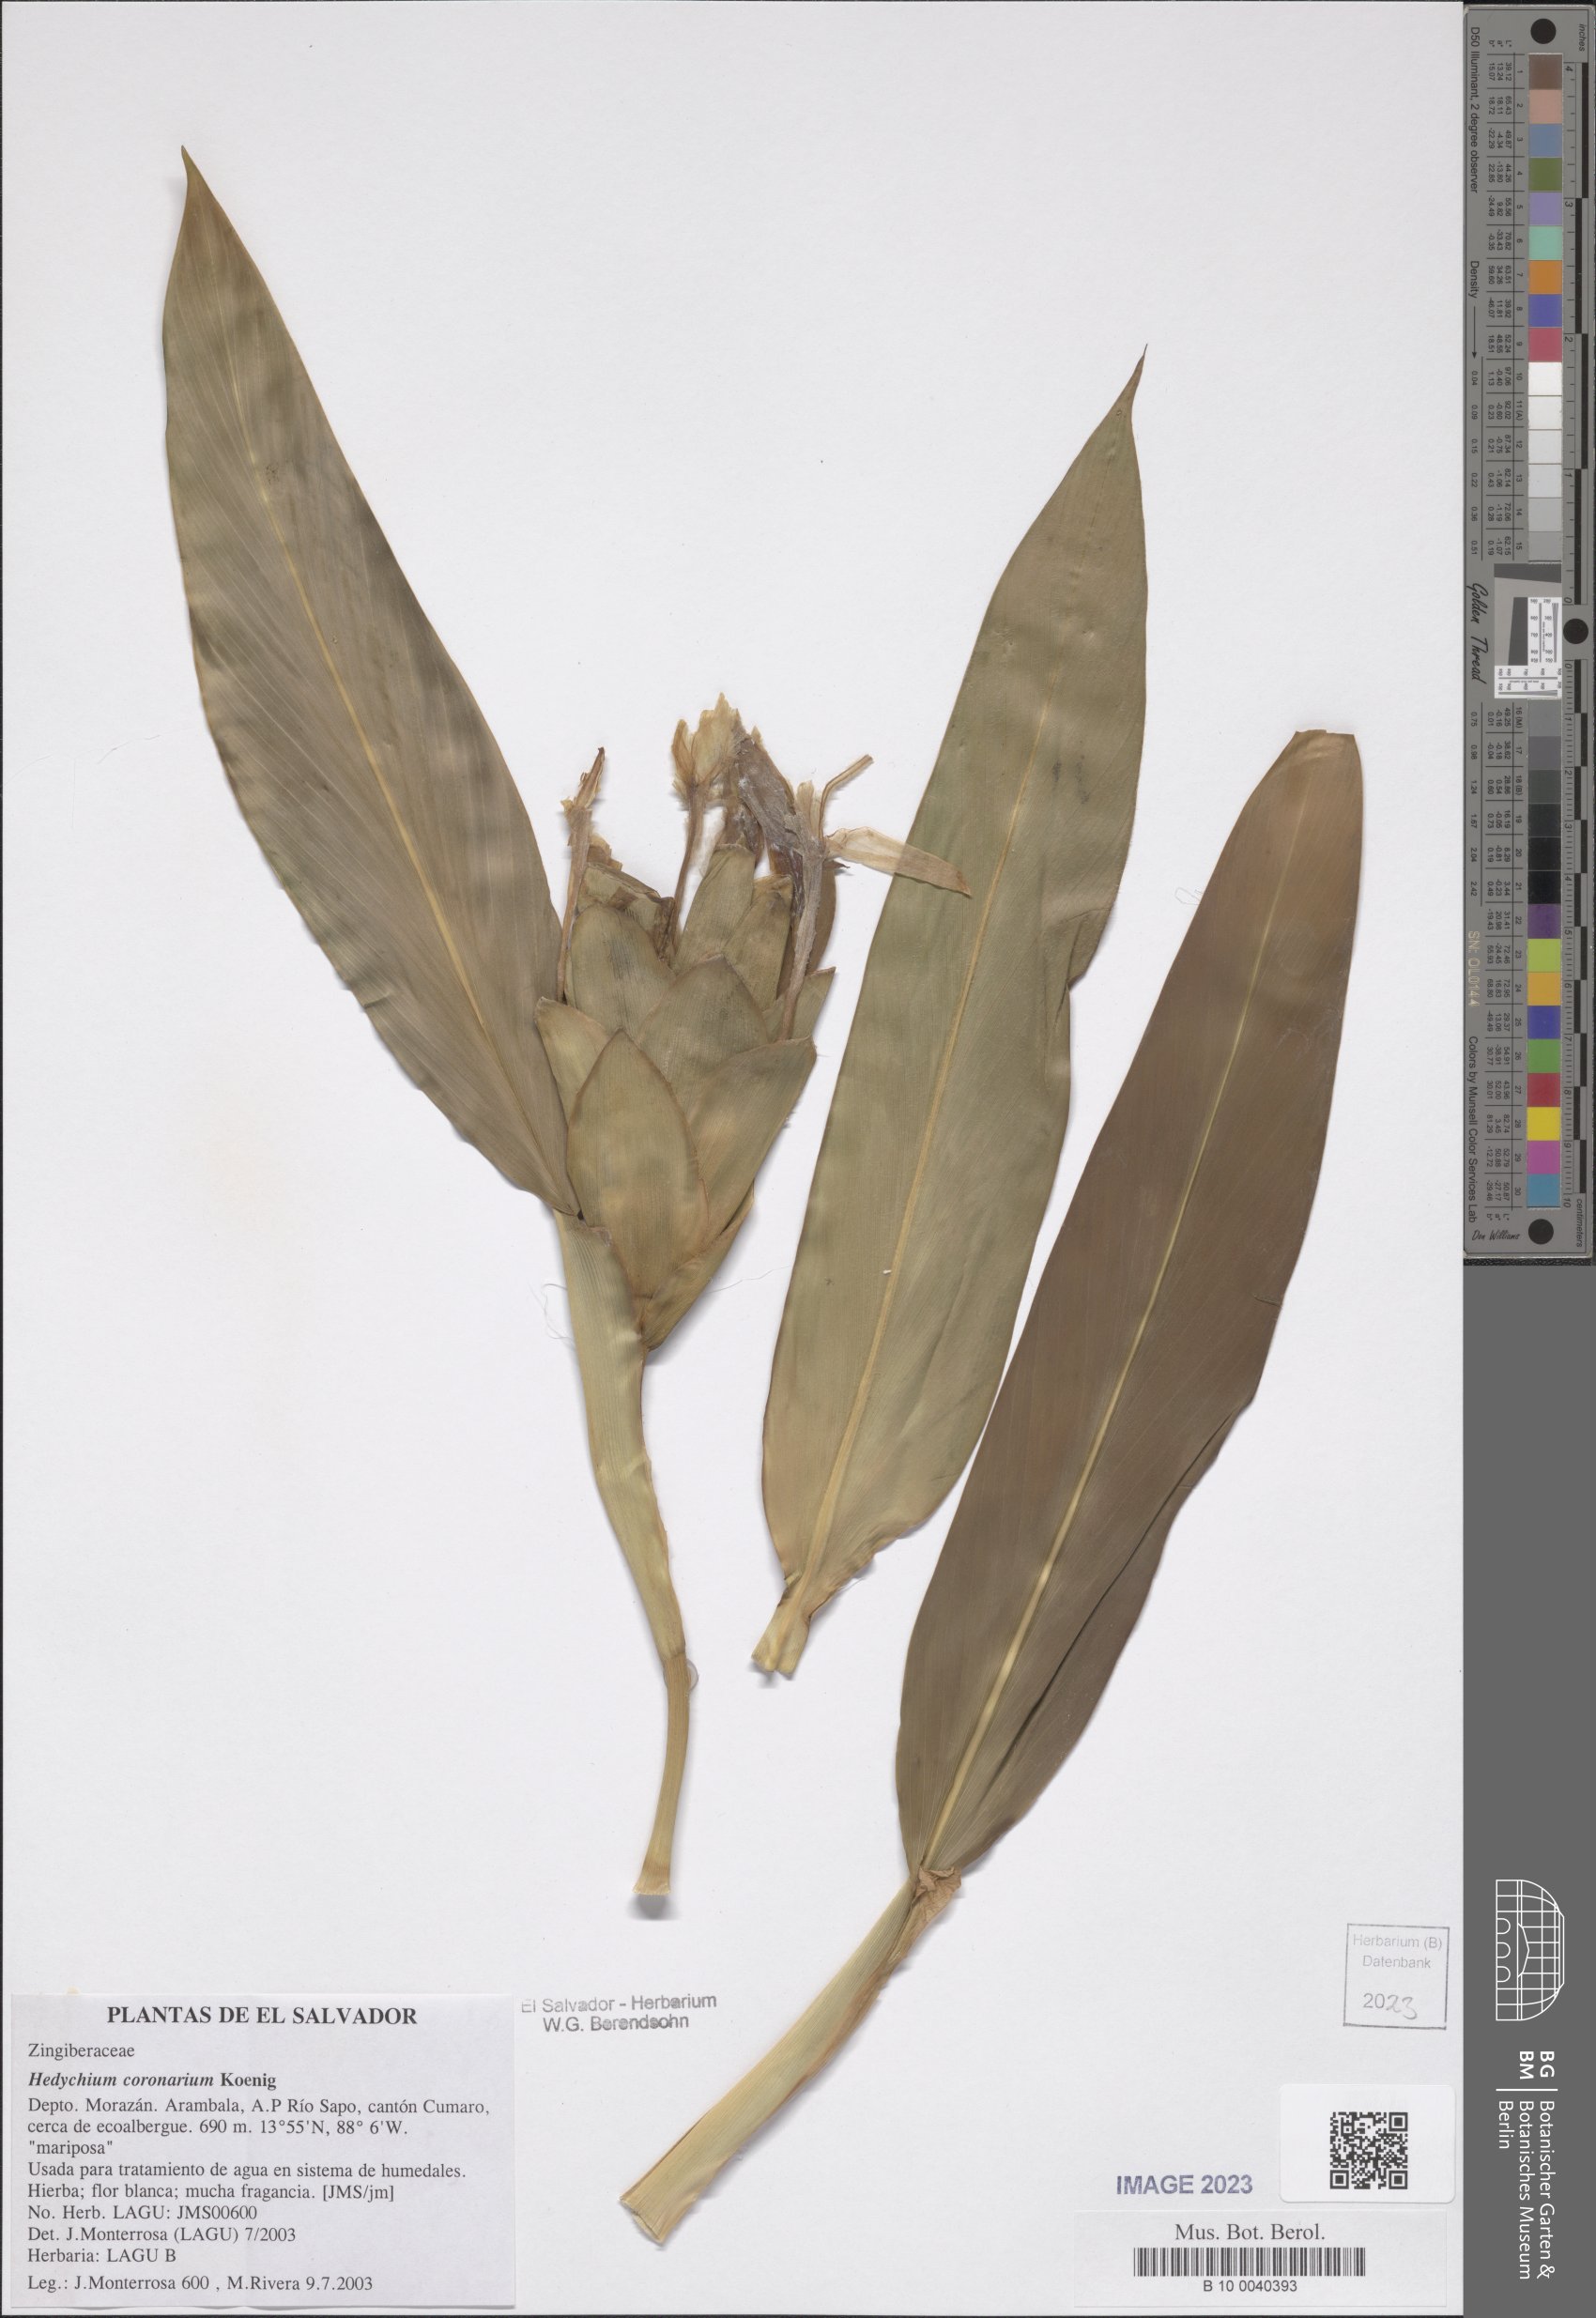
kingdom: Plantae
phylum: Tracheophyta
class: Liliopsida
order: Zingiberales
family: Zingiberaceae
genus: Hedychium
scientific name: Hedychium coronarium
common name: White garland-lily
